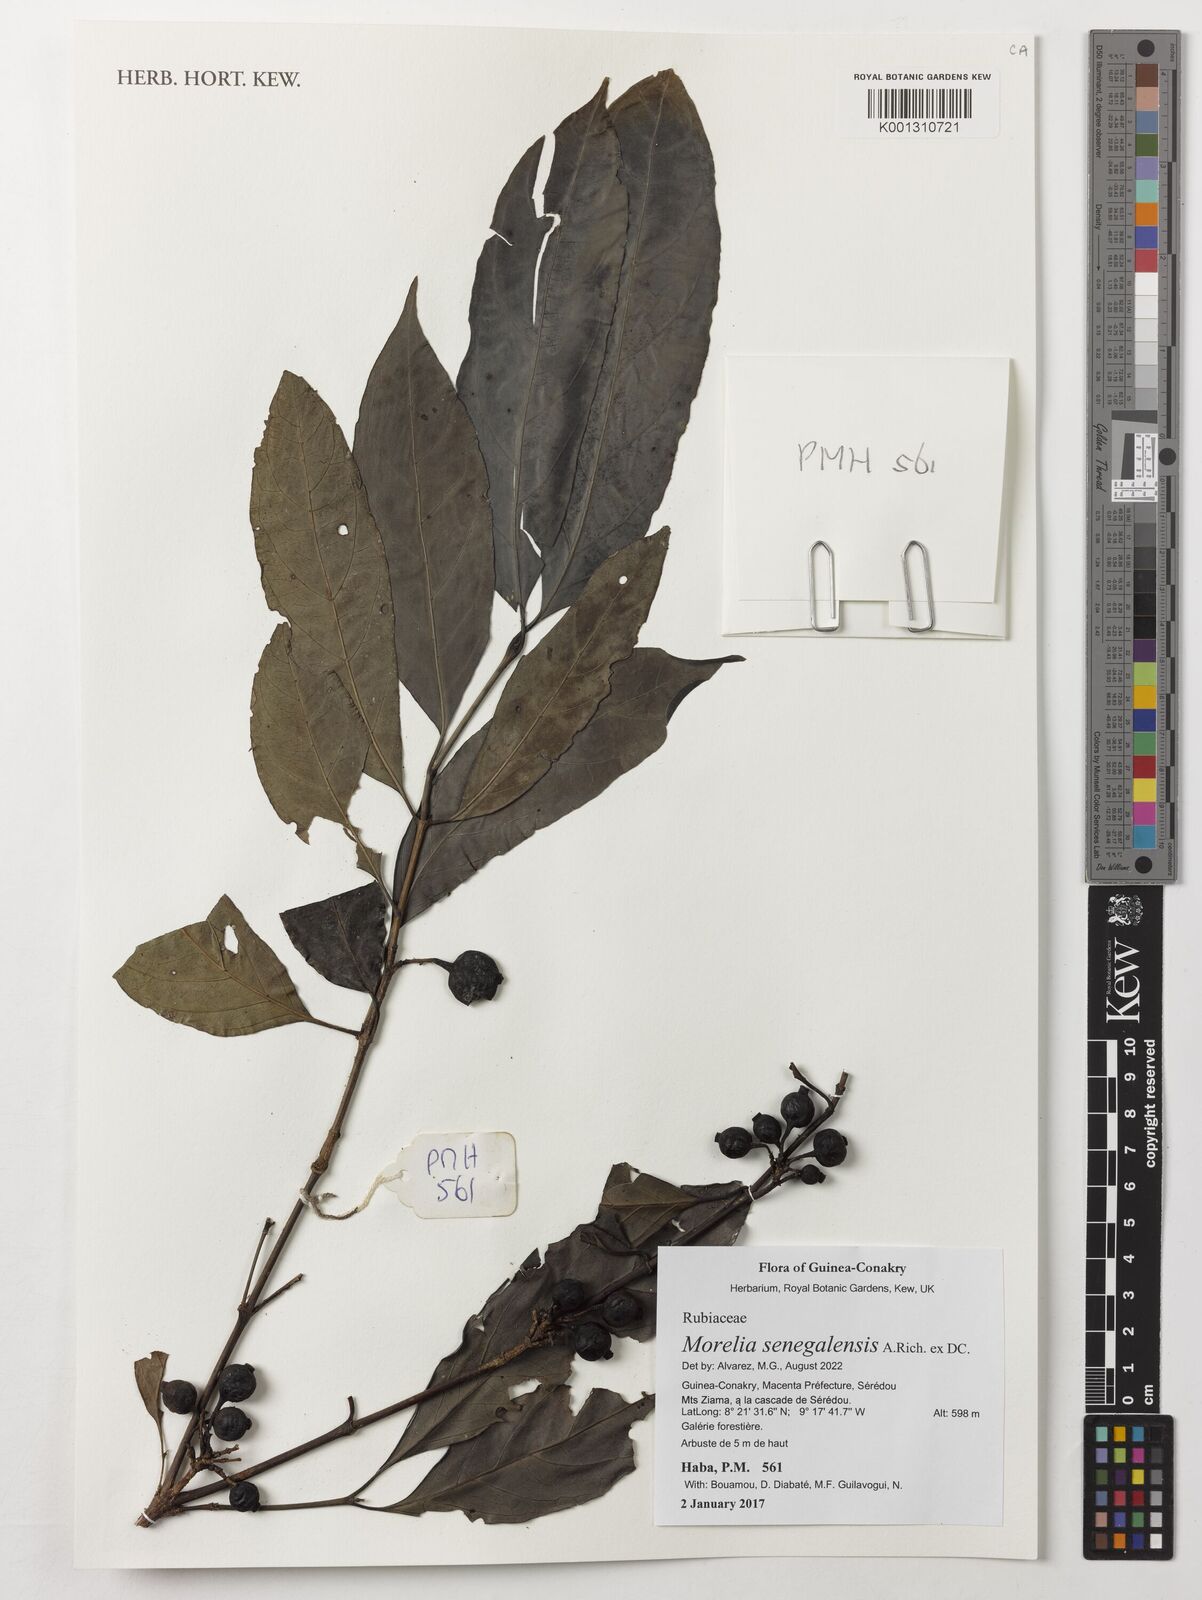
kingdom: Plantae
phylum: Tracheophyta
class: Magnoliopsida
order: Gentianales
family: Rubiaceae
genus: Morelia
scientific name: Morelia senegalensis
